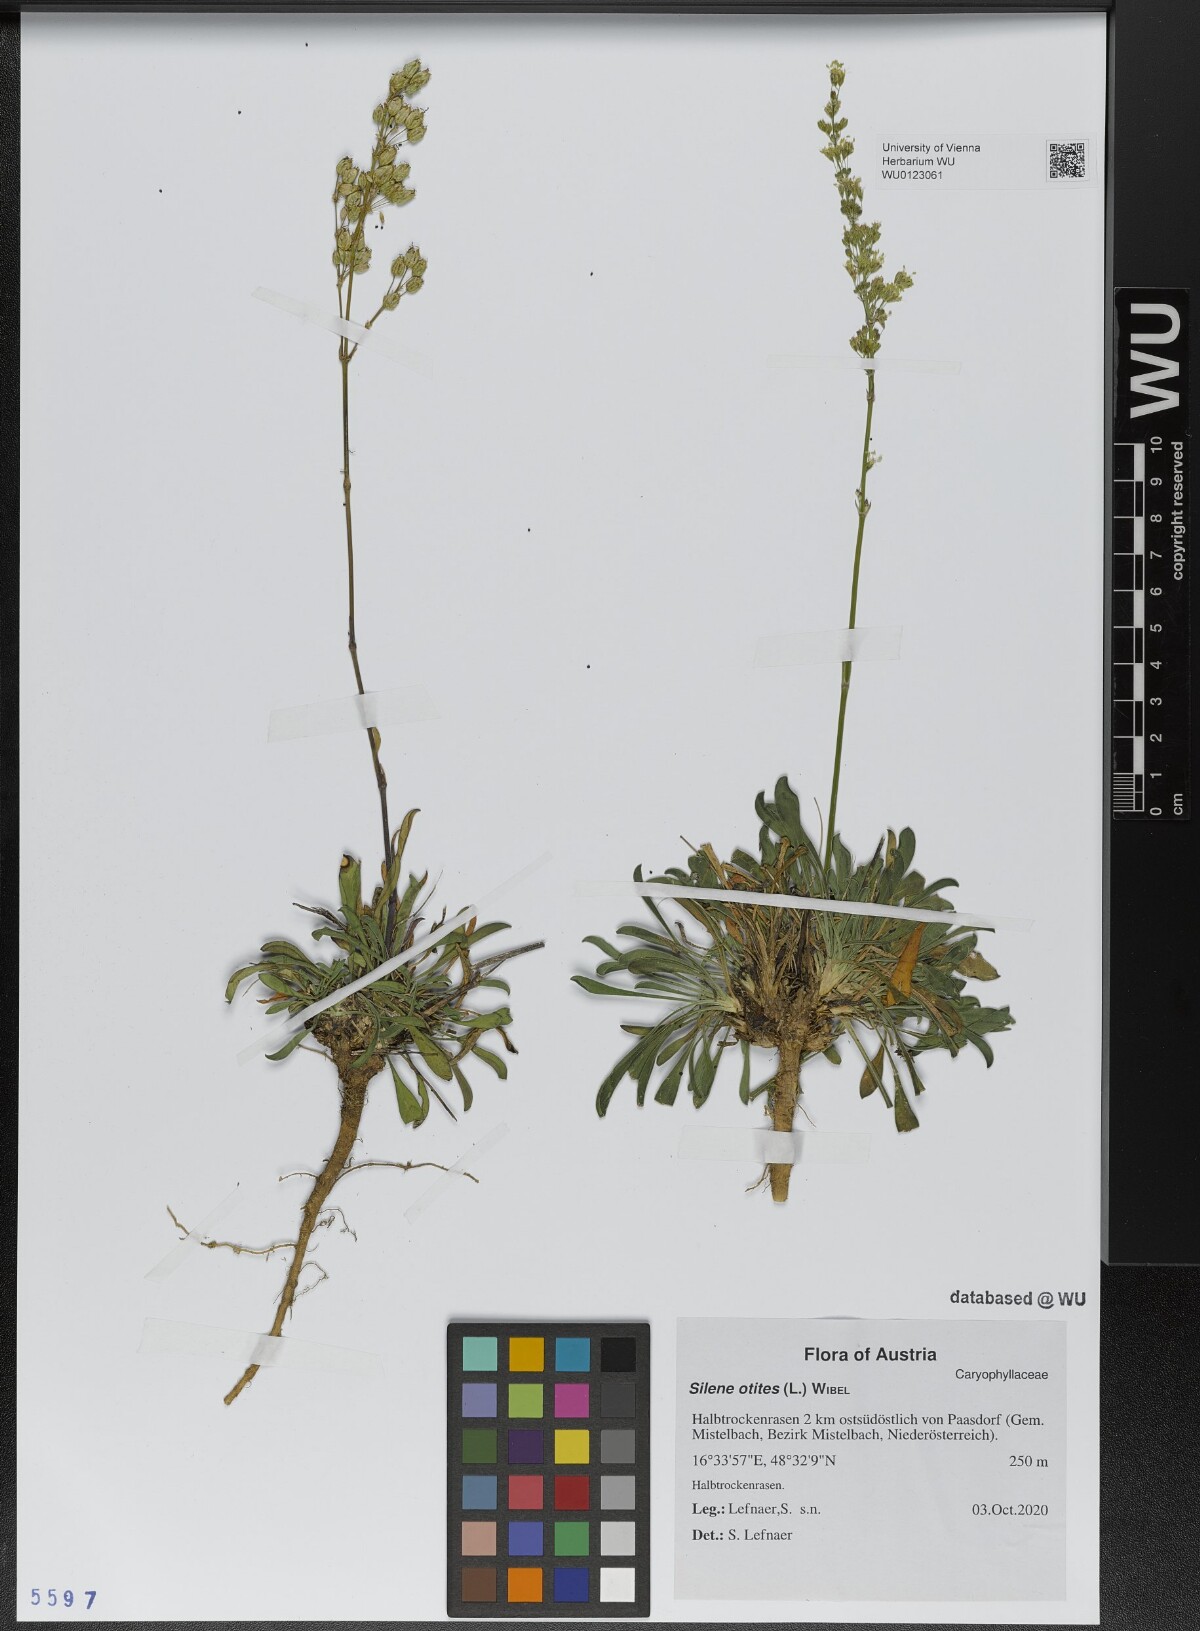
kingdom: Plantae
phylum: Tracheophyta
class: Magnoliopsida
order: Caryophyllales
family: Caryophyllaceae
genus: Silene
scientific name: Silene otites
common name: Spanish catchfly
